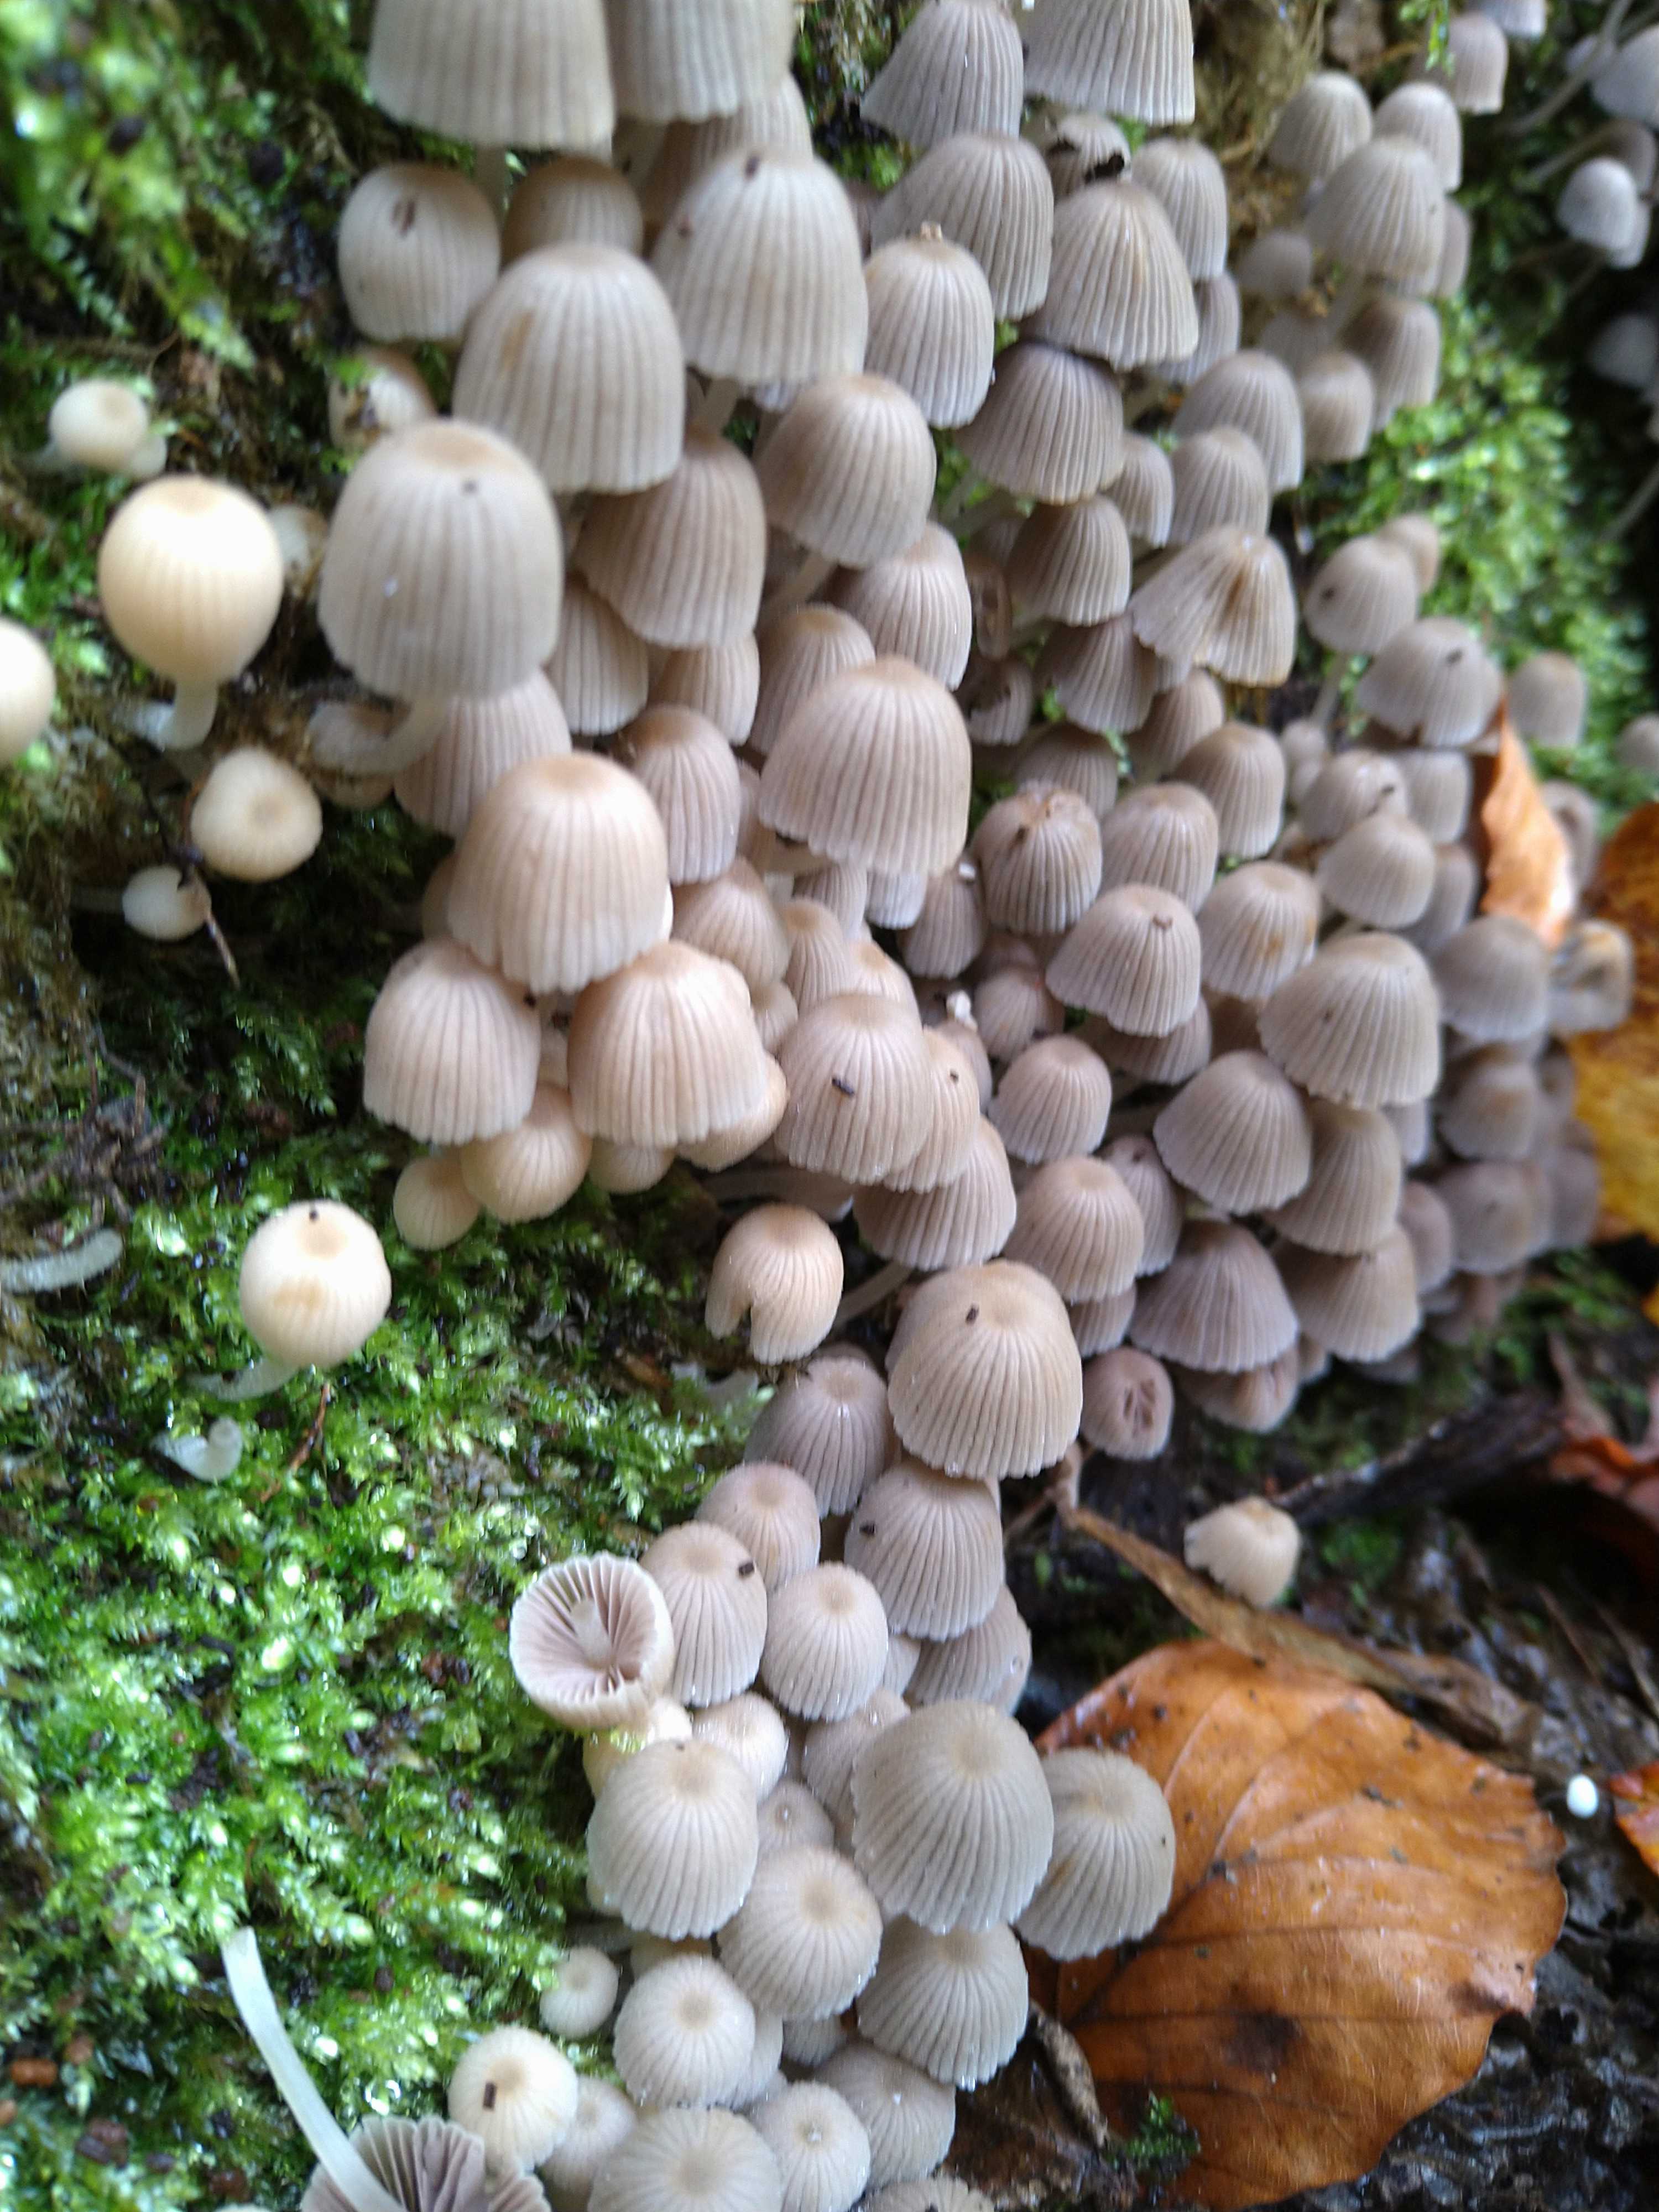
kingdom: Fungi
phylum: Basidiomycota
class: Agaricomycetes
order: Agaricales
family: Psathyrellaceae
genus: Coprinellus
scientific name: Coprinellus disseminatus
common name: bredsået blækhat
